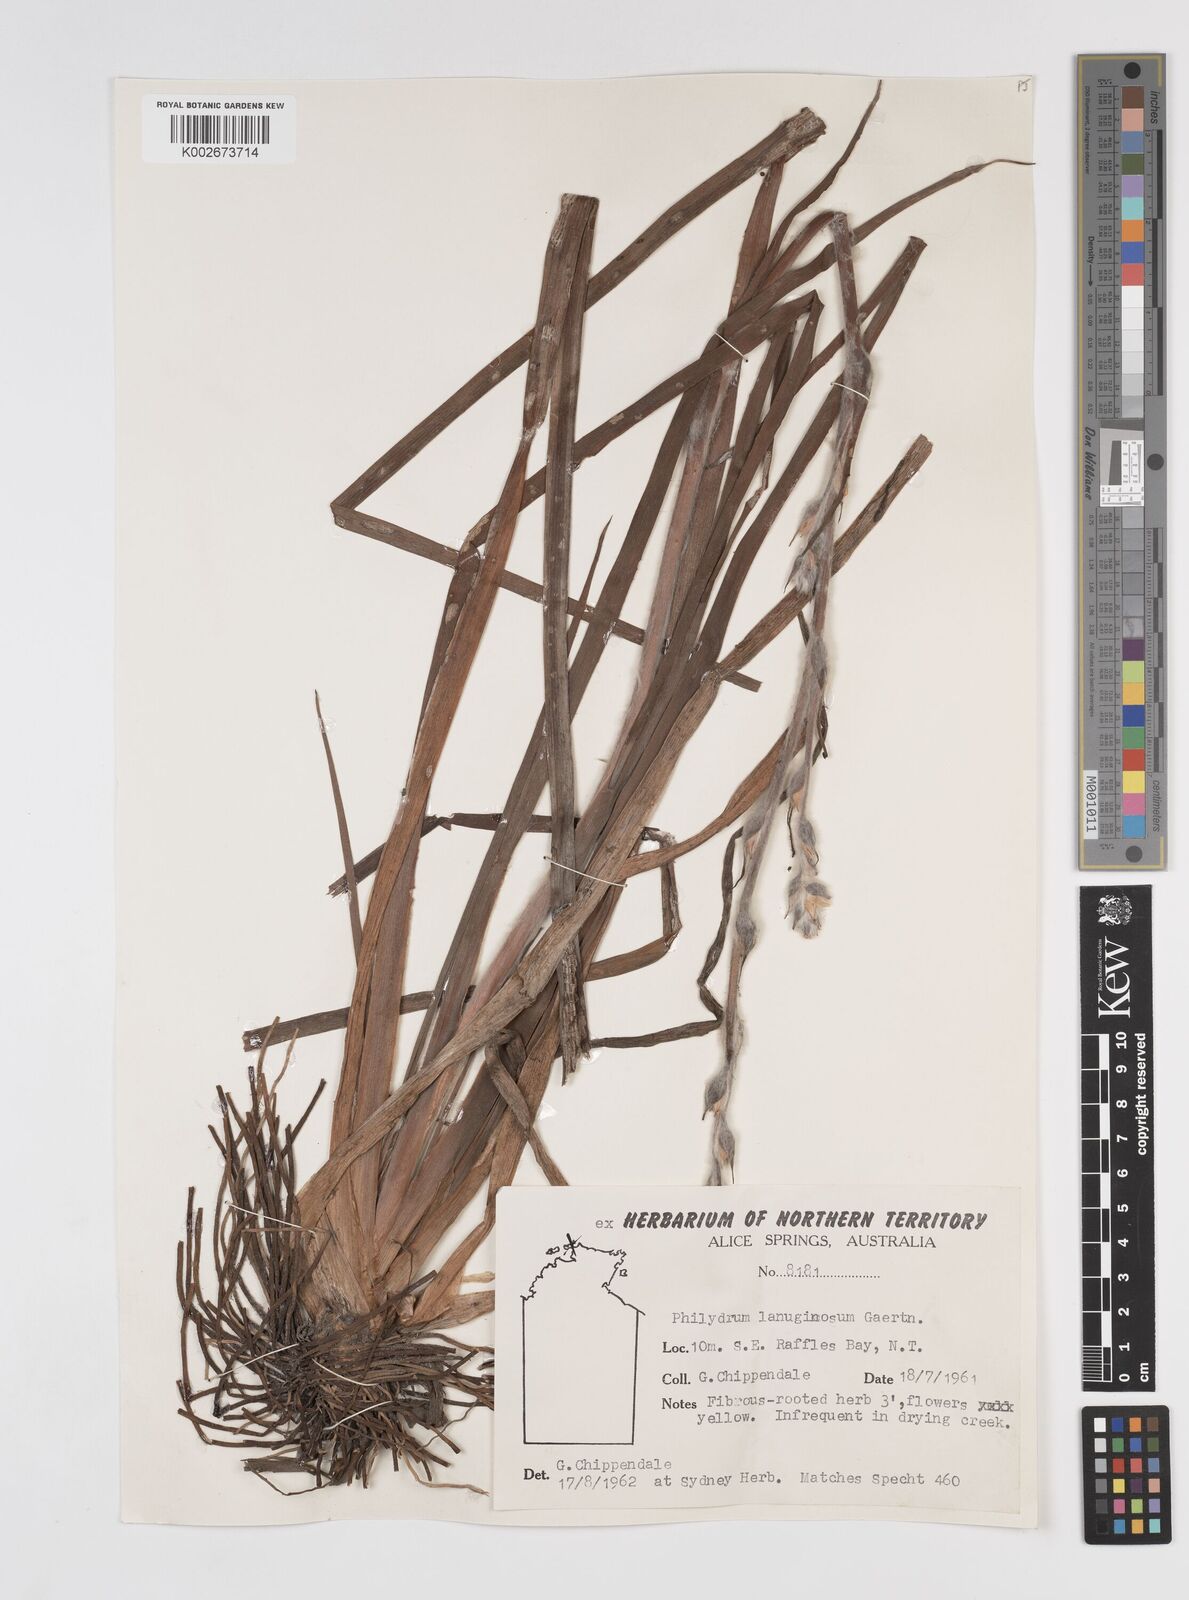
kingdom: Plantae
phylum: Tracheophyta
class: Liliopsida
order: Commelinales
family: Philydraceae
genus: Philydrum
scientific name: Philydrum lanuginosum
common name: Woolly frog's mouth
